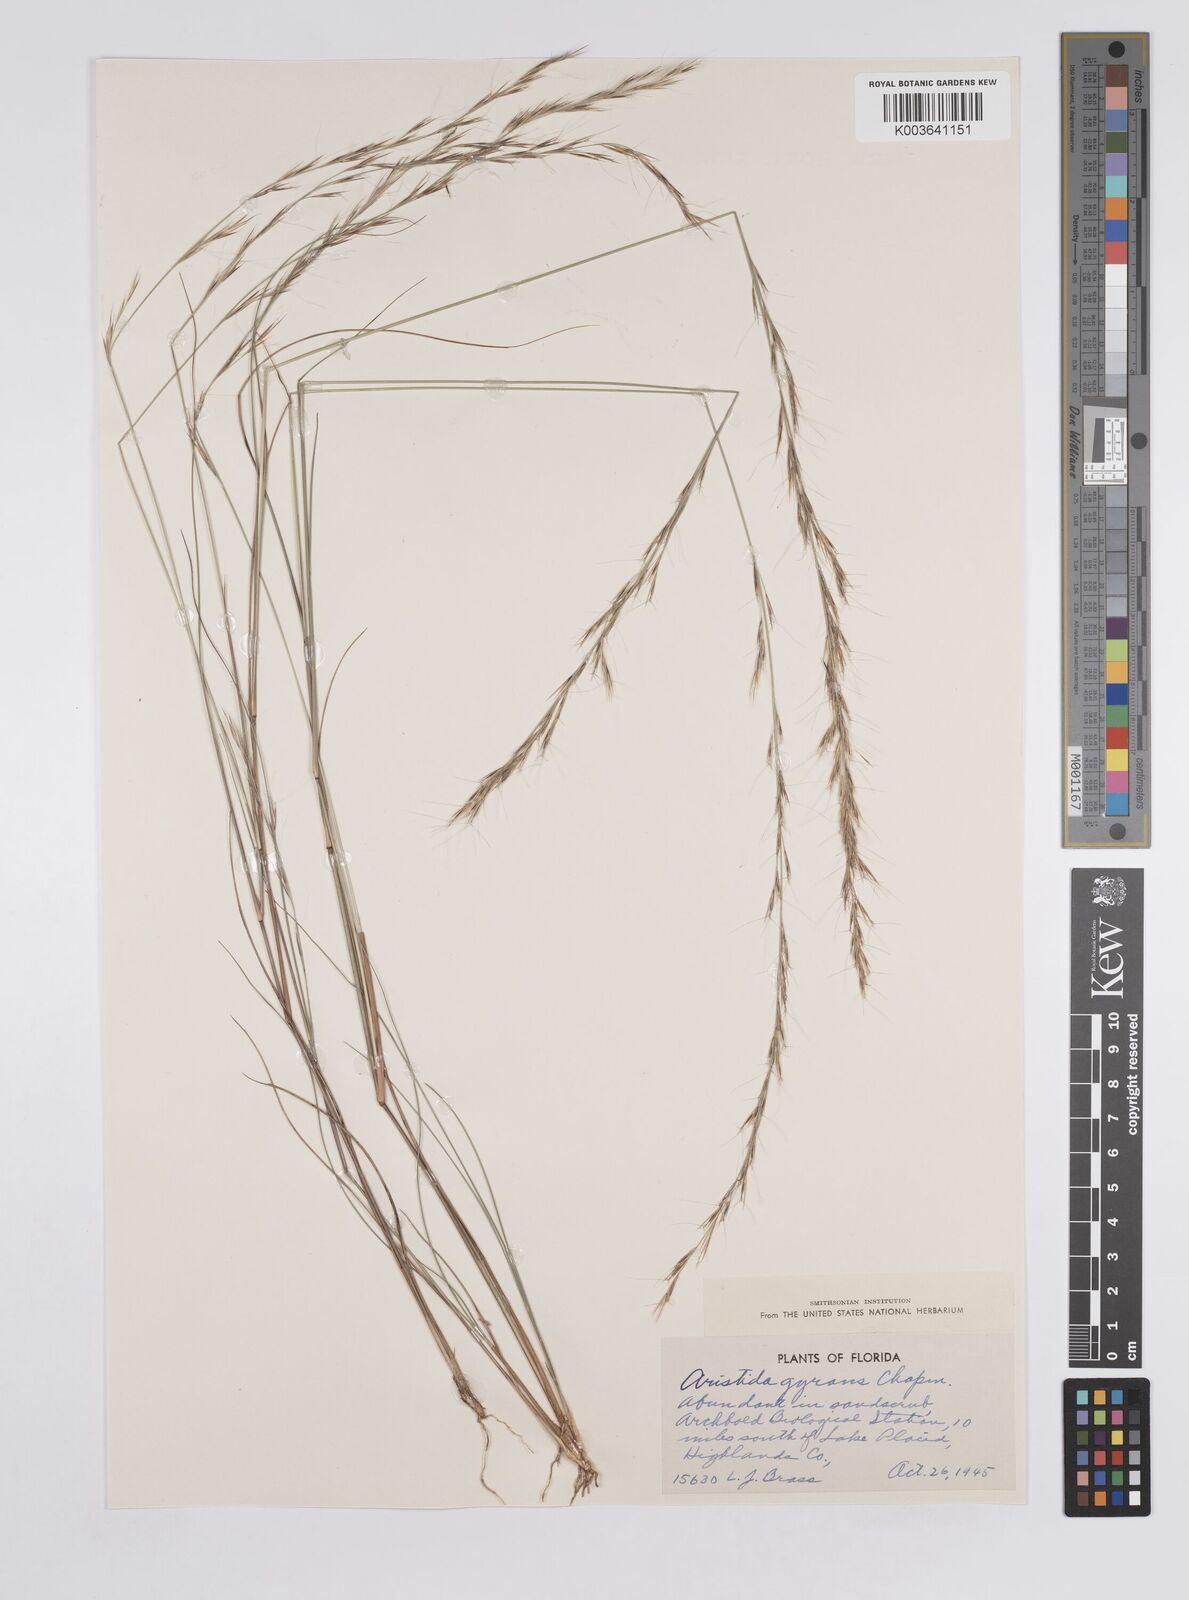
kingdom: Plantae
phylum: Tracheophyta
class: Liliopsida
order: Poales
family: Poaceae
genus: Aristida
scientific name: Aristida gyrans
